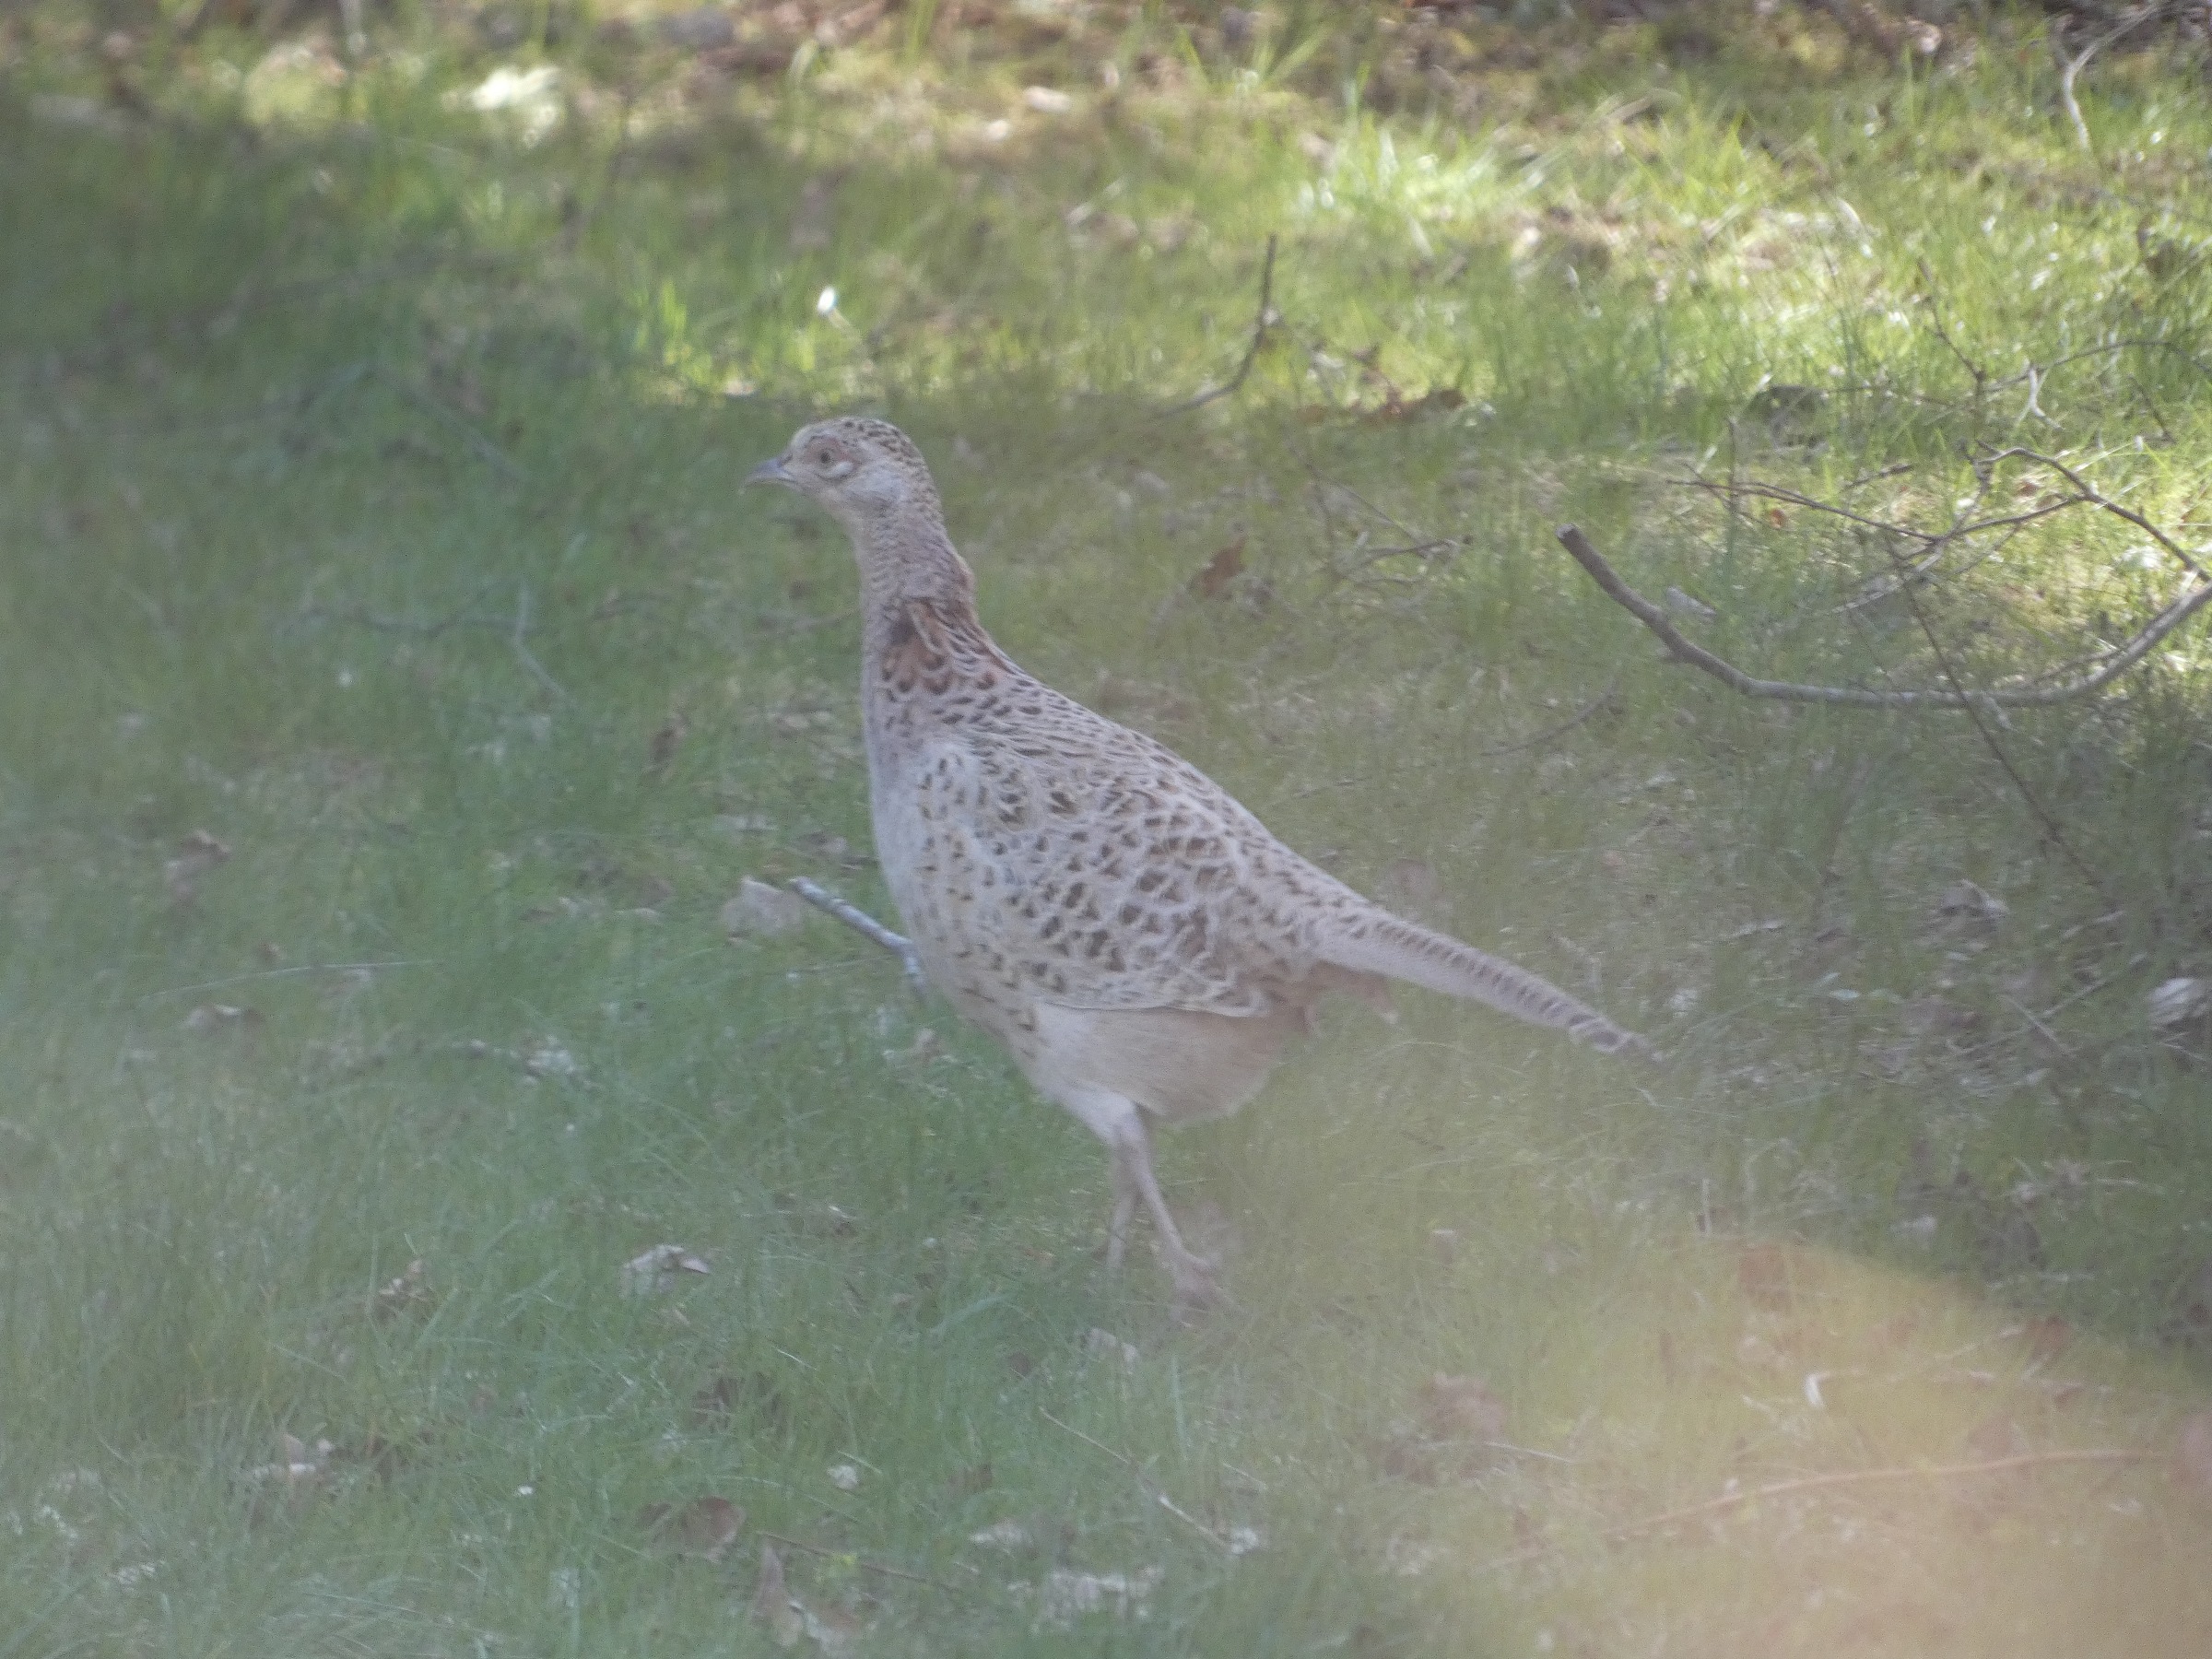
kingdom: Animalia
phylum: Chordata
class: Aves
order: Galliformes
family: Phasianidae
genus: Phasianus
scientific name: Phasianus colchicus
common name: Fasan
